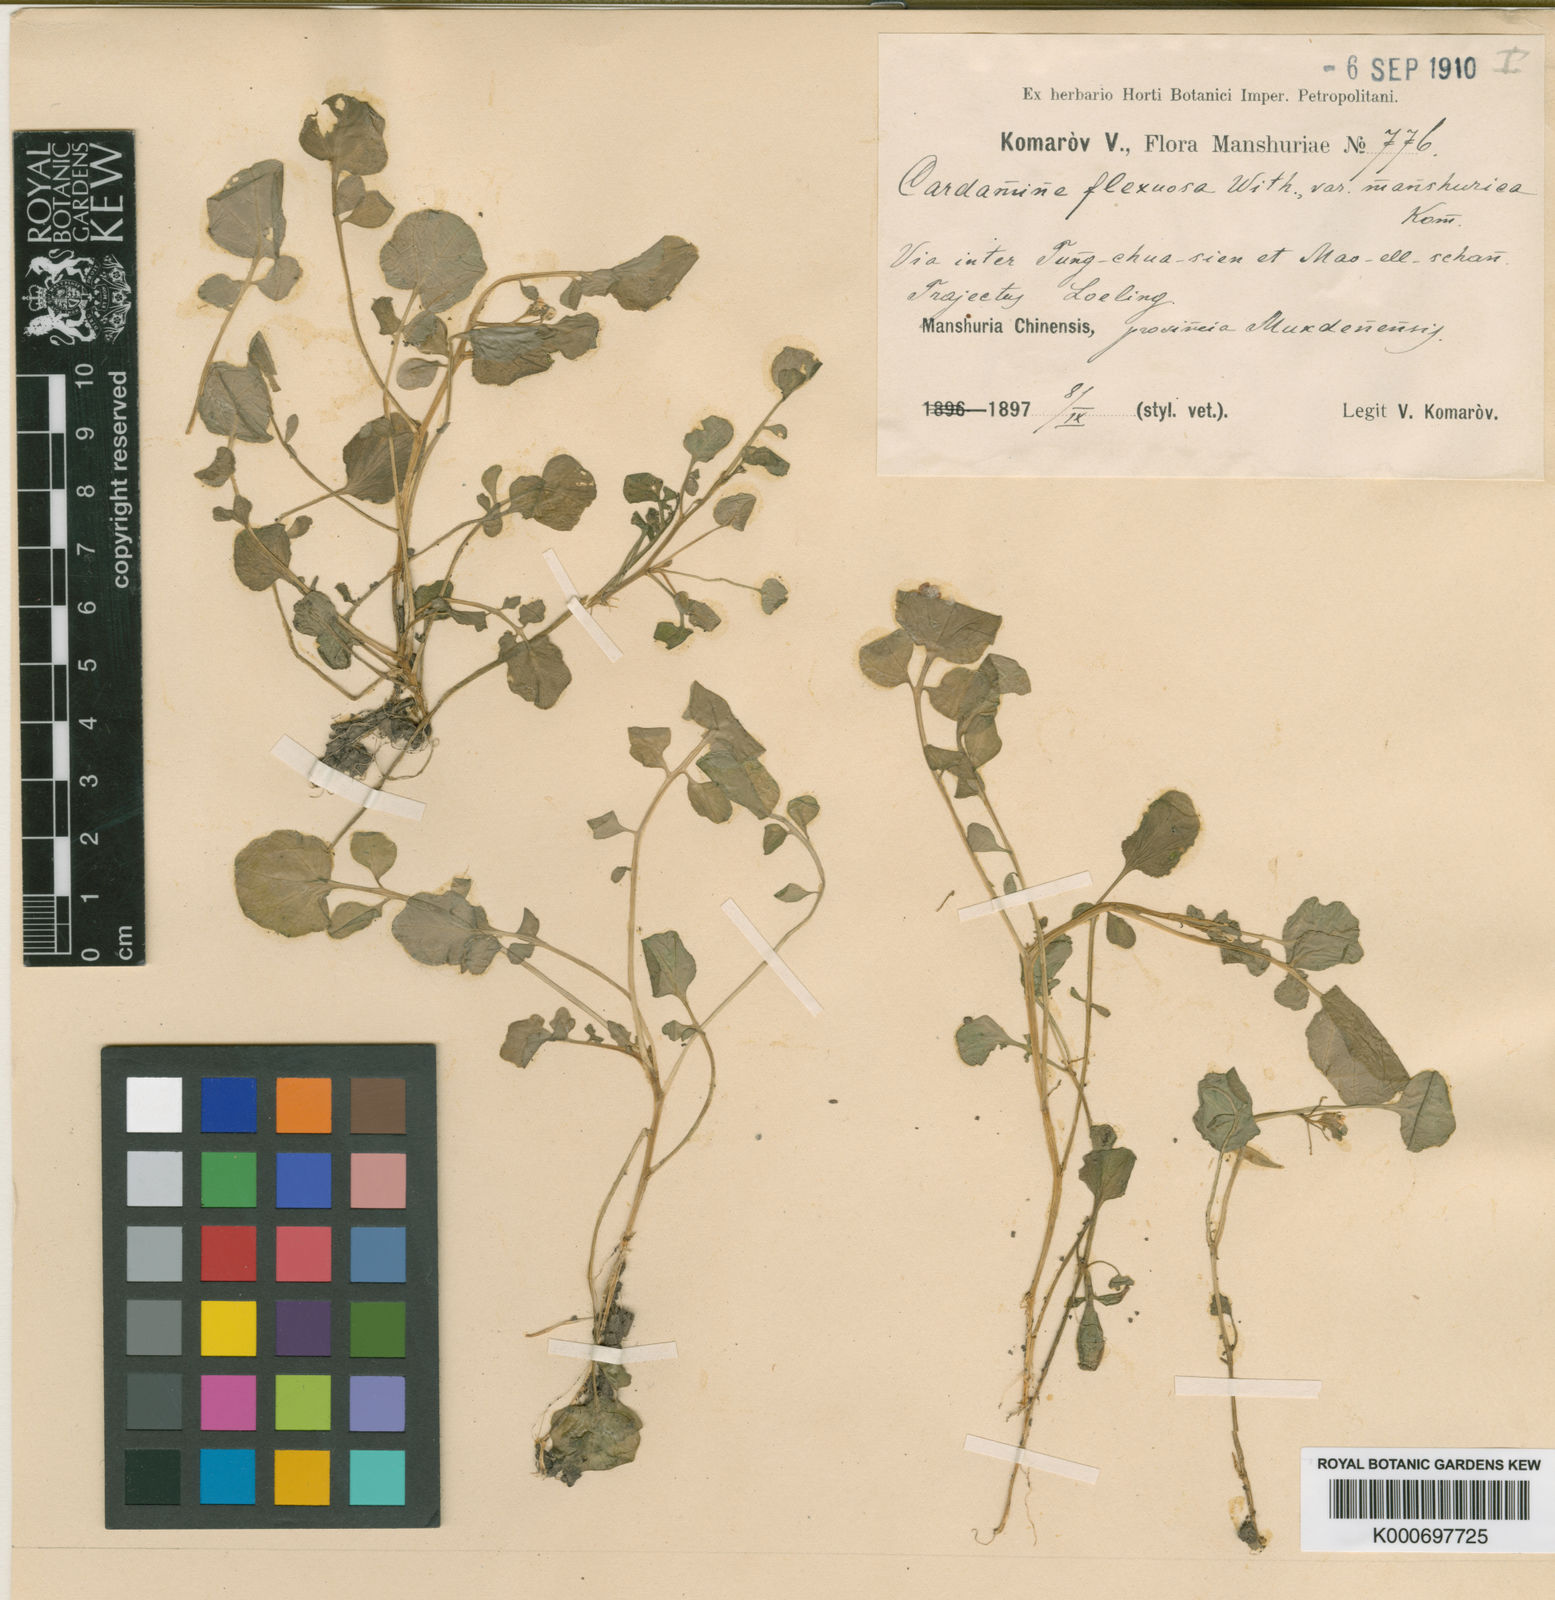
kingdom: Plantae
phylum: Tracheophyta
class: Magnoliopsida
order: Brassicales
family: Brassicaceae
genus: Cardamine
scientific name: Cardamine flexuosa
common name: Woodland bittercress
